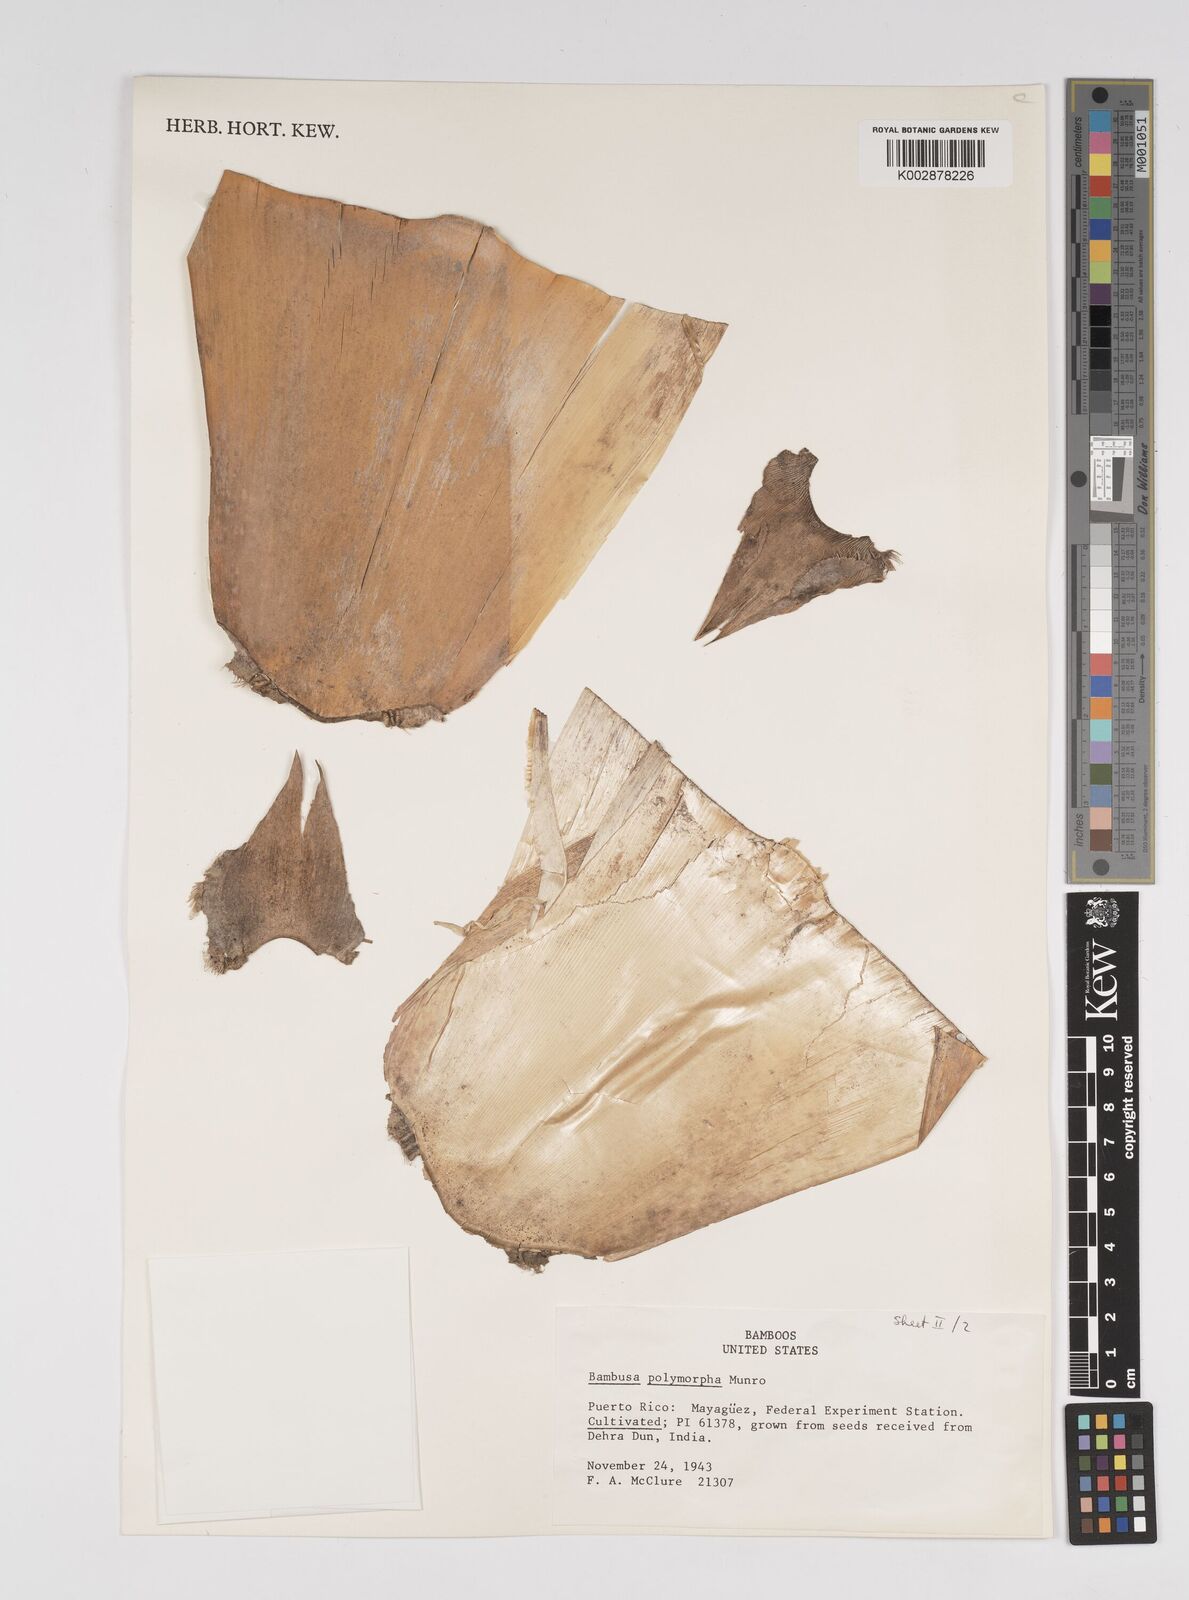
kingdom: Plantae
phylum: Tracheophyta
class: Liliopsida
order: Poales
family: Poaceae
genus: Bambusa
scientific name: Bambusa polymorpha
